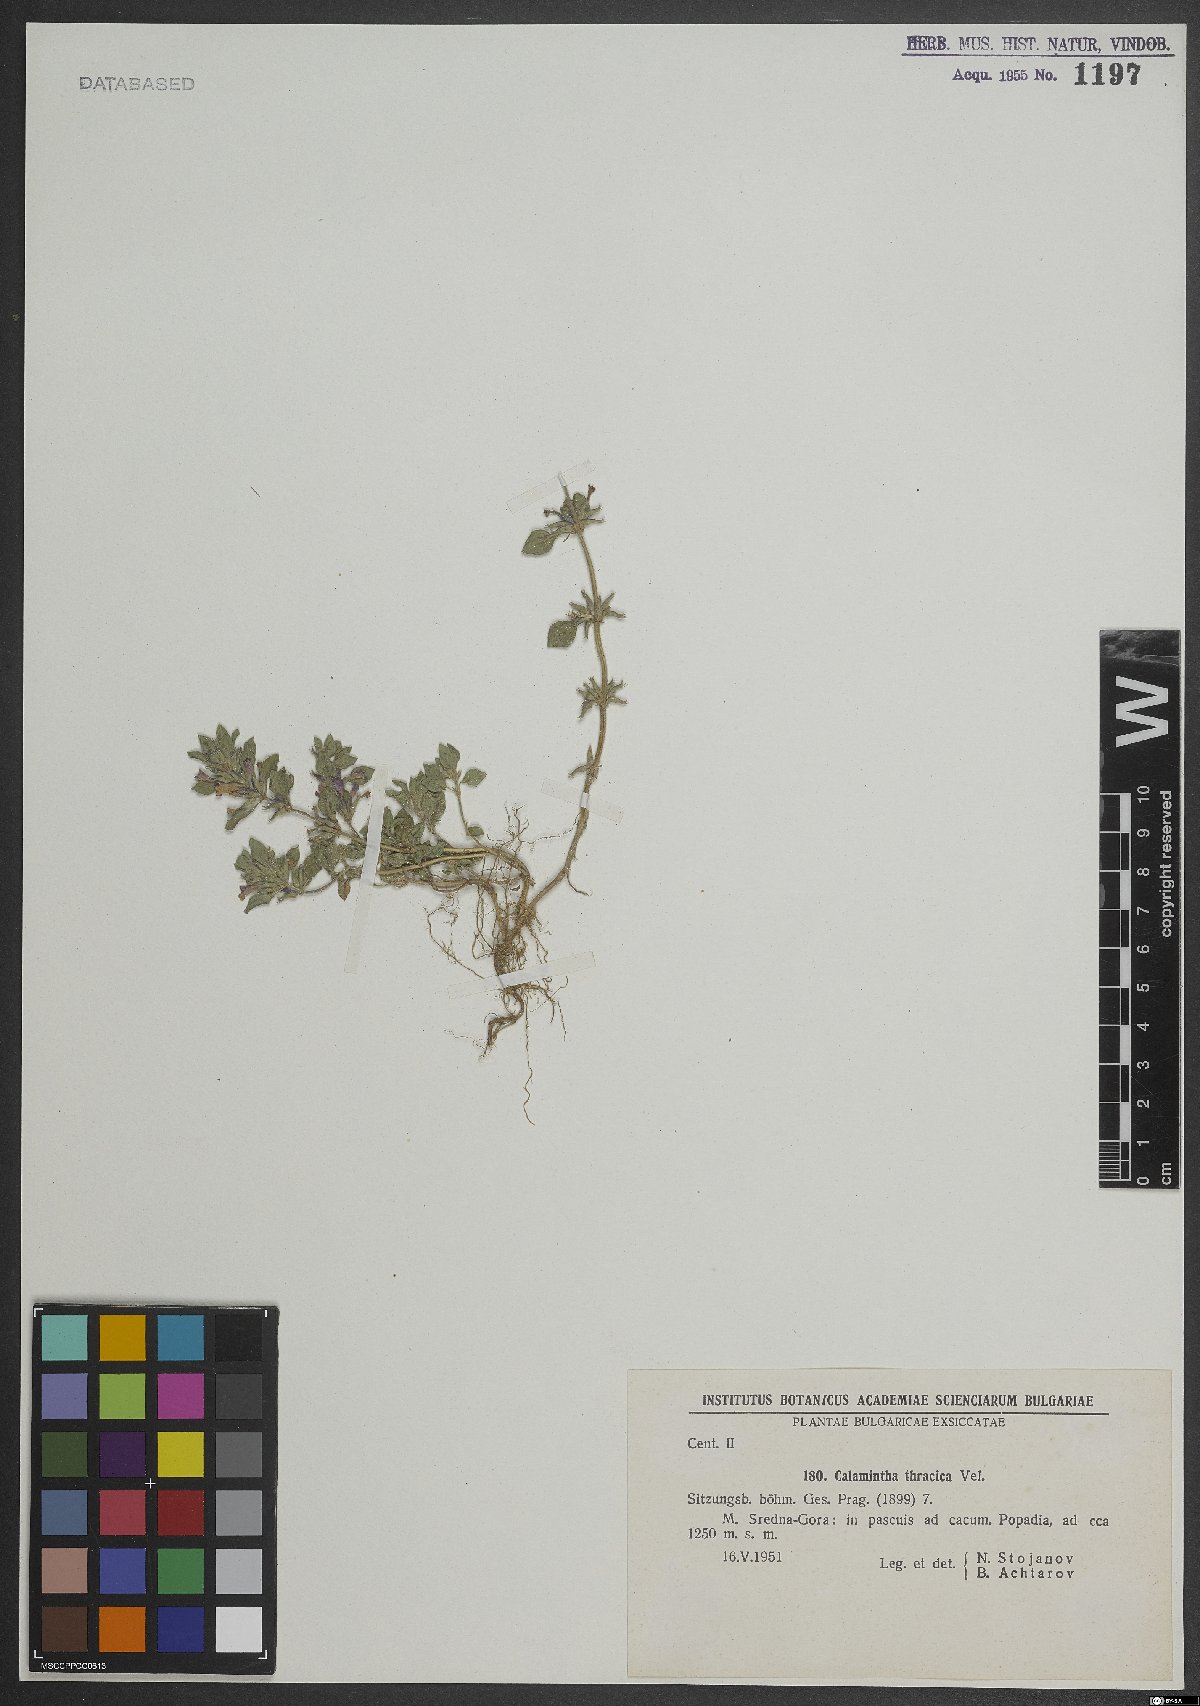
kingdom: Plantae
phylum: Tracheophyta
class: Magnoliopsida
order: Lamiales
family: Lamiaceae
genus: Clinopodium
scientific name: Clinopodium alpinum
